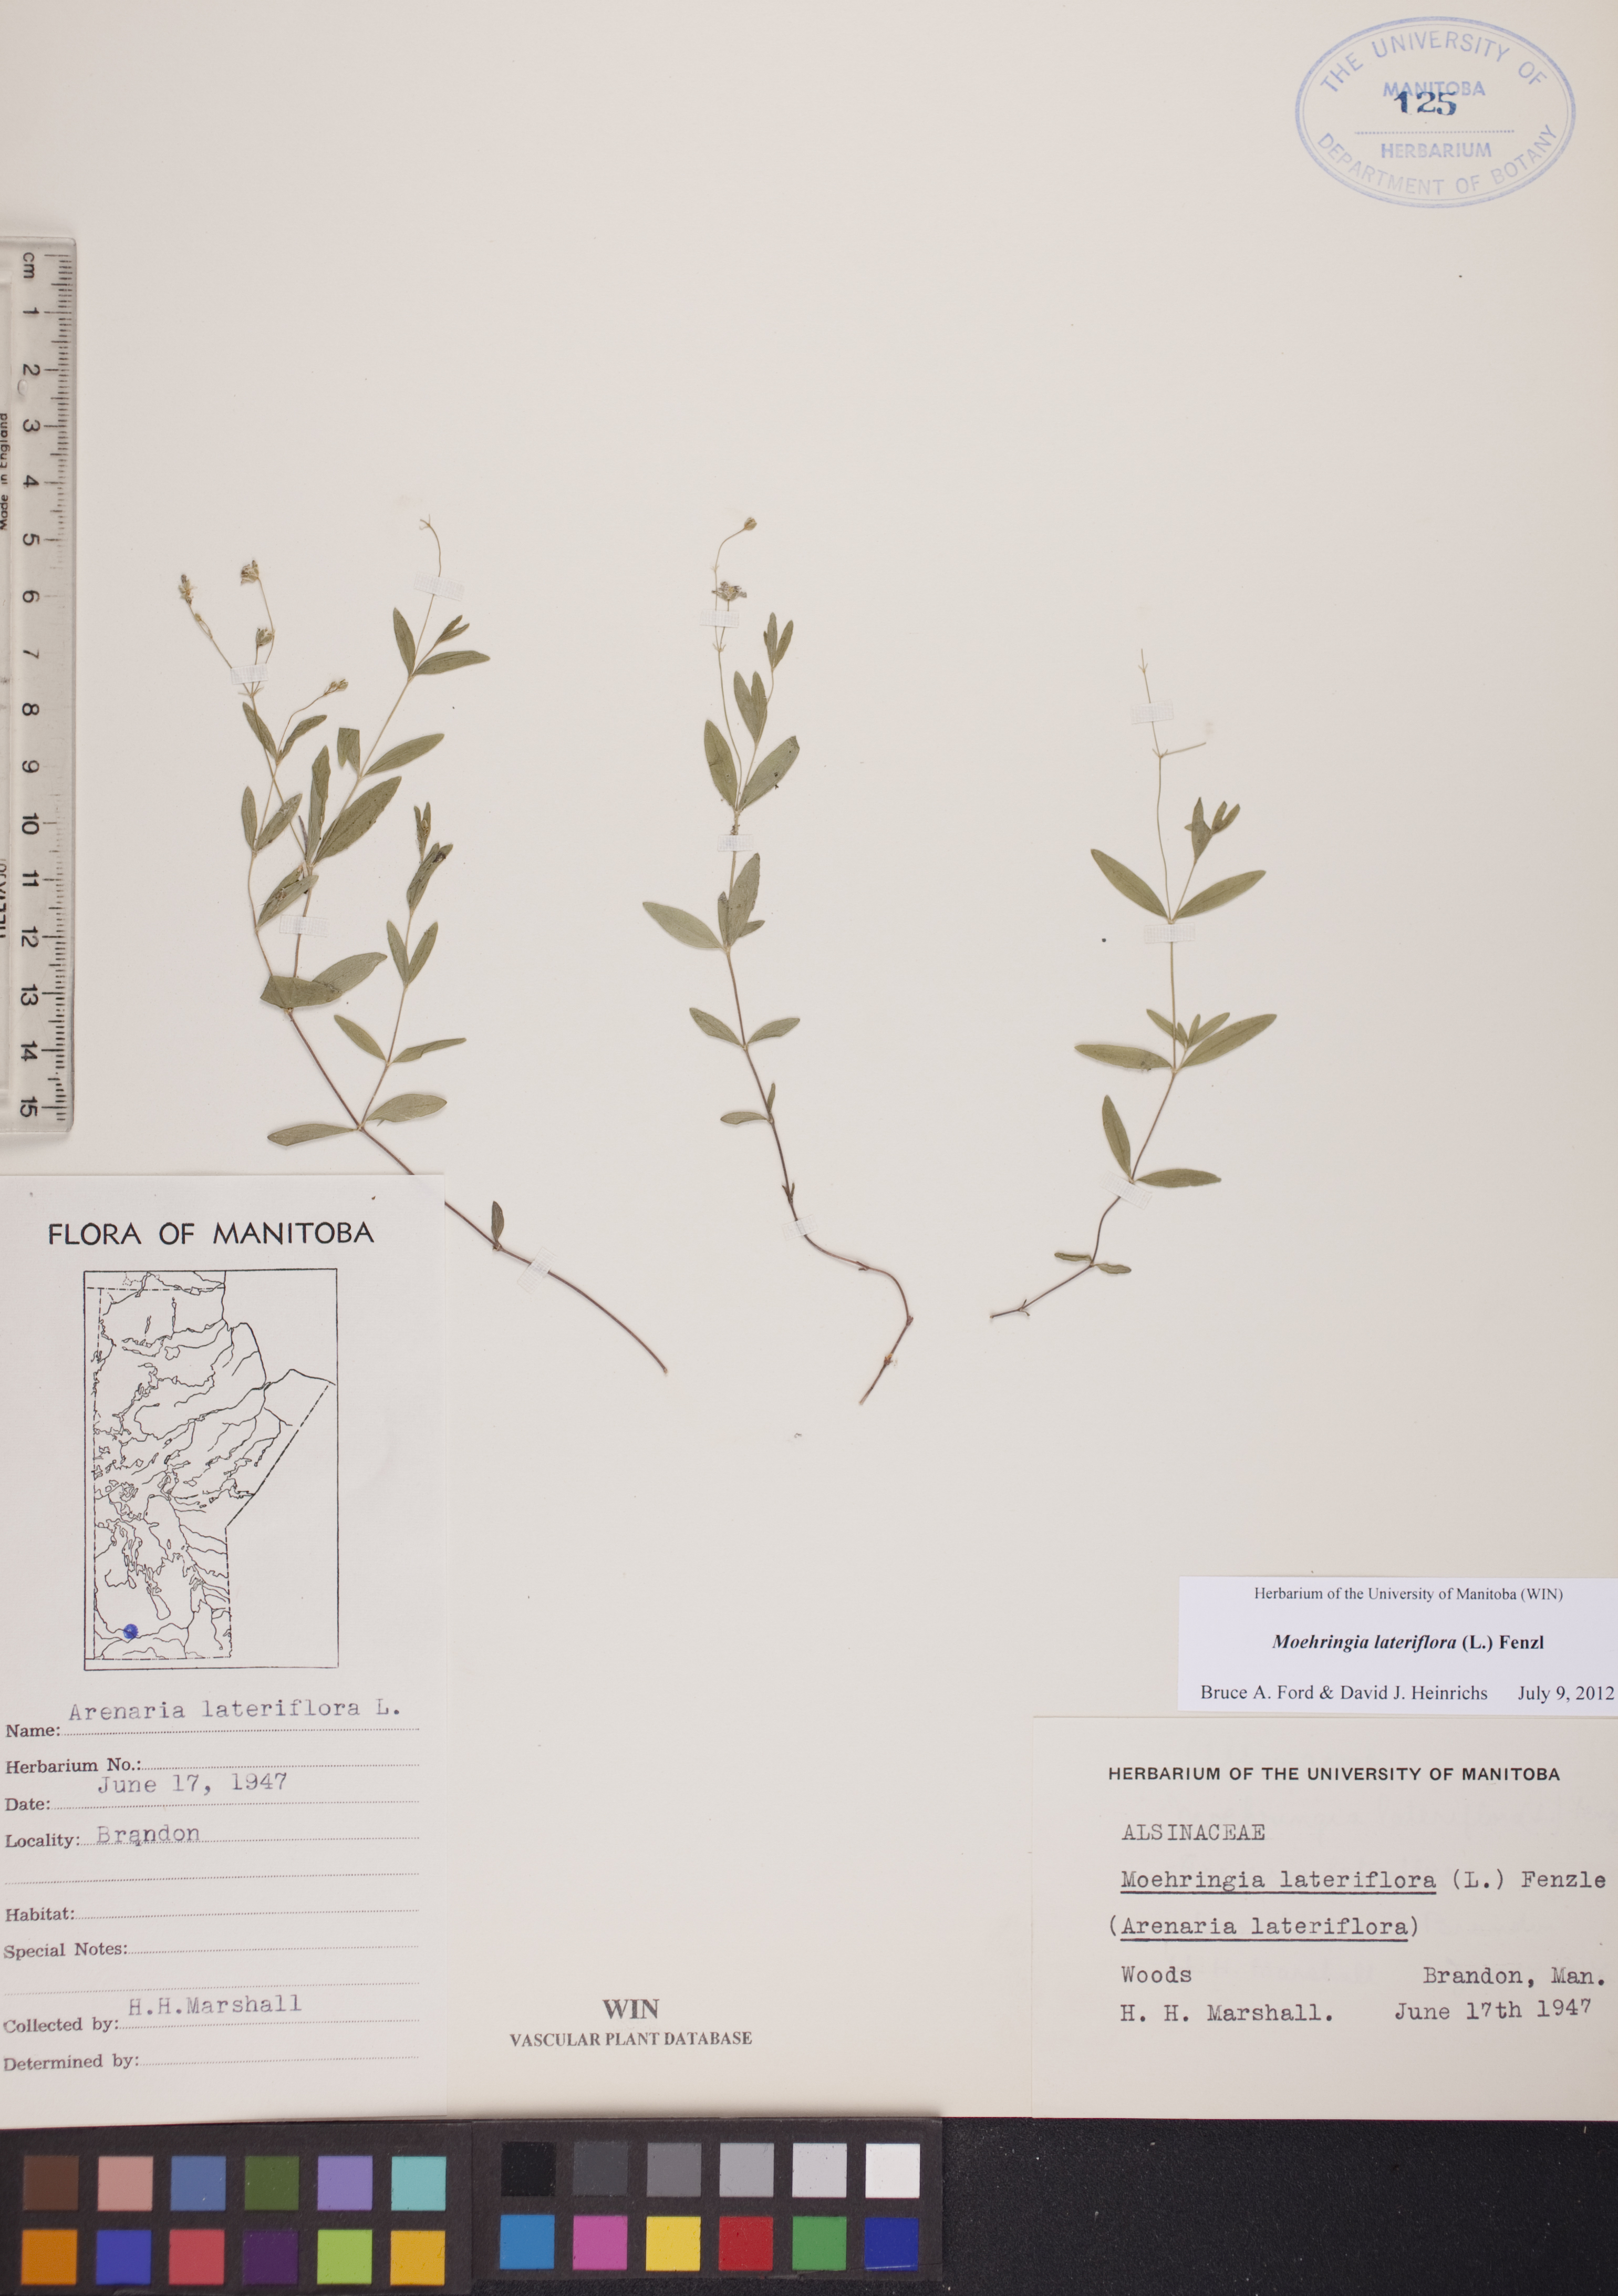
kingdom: Plantae
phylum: Tracheophyta
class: Magnoliopsida
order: Caryophyllales
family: Caryophyllaceae
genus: Moehringia
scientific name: Moehringia lateriflora
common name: Blunt-leaved sandwort
